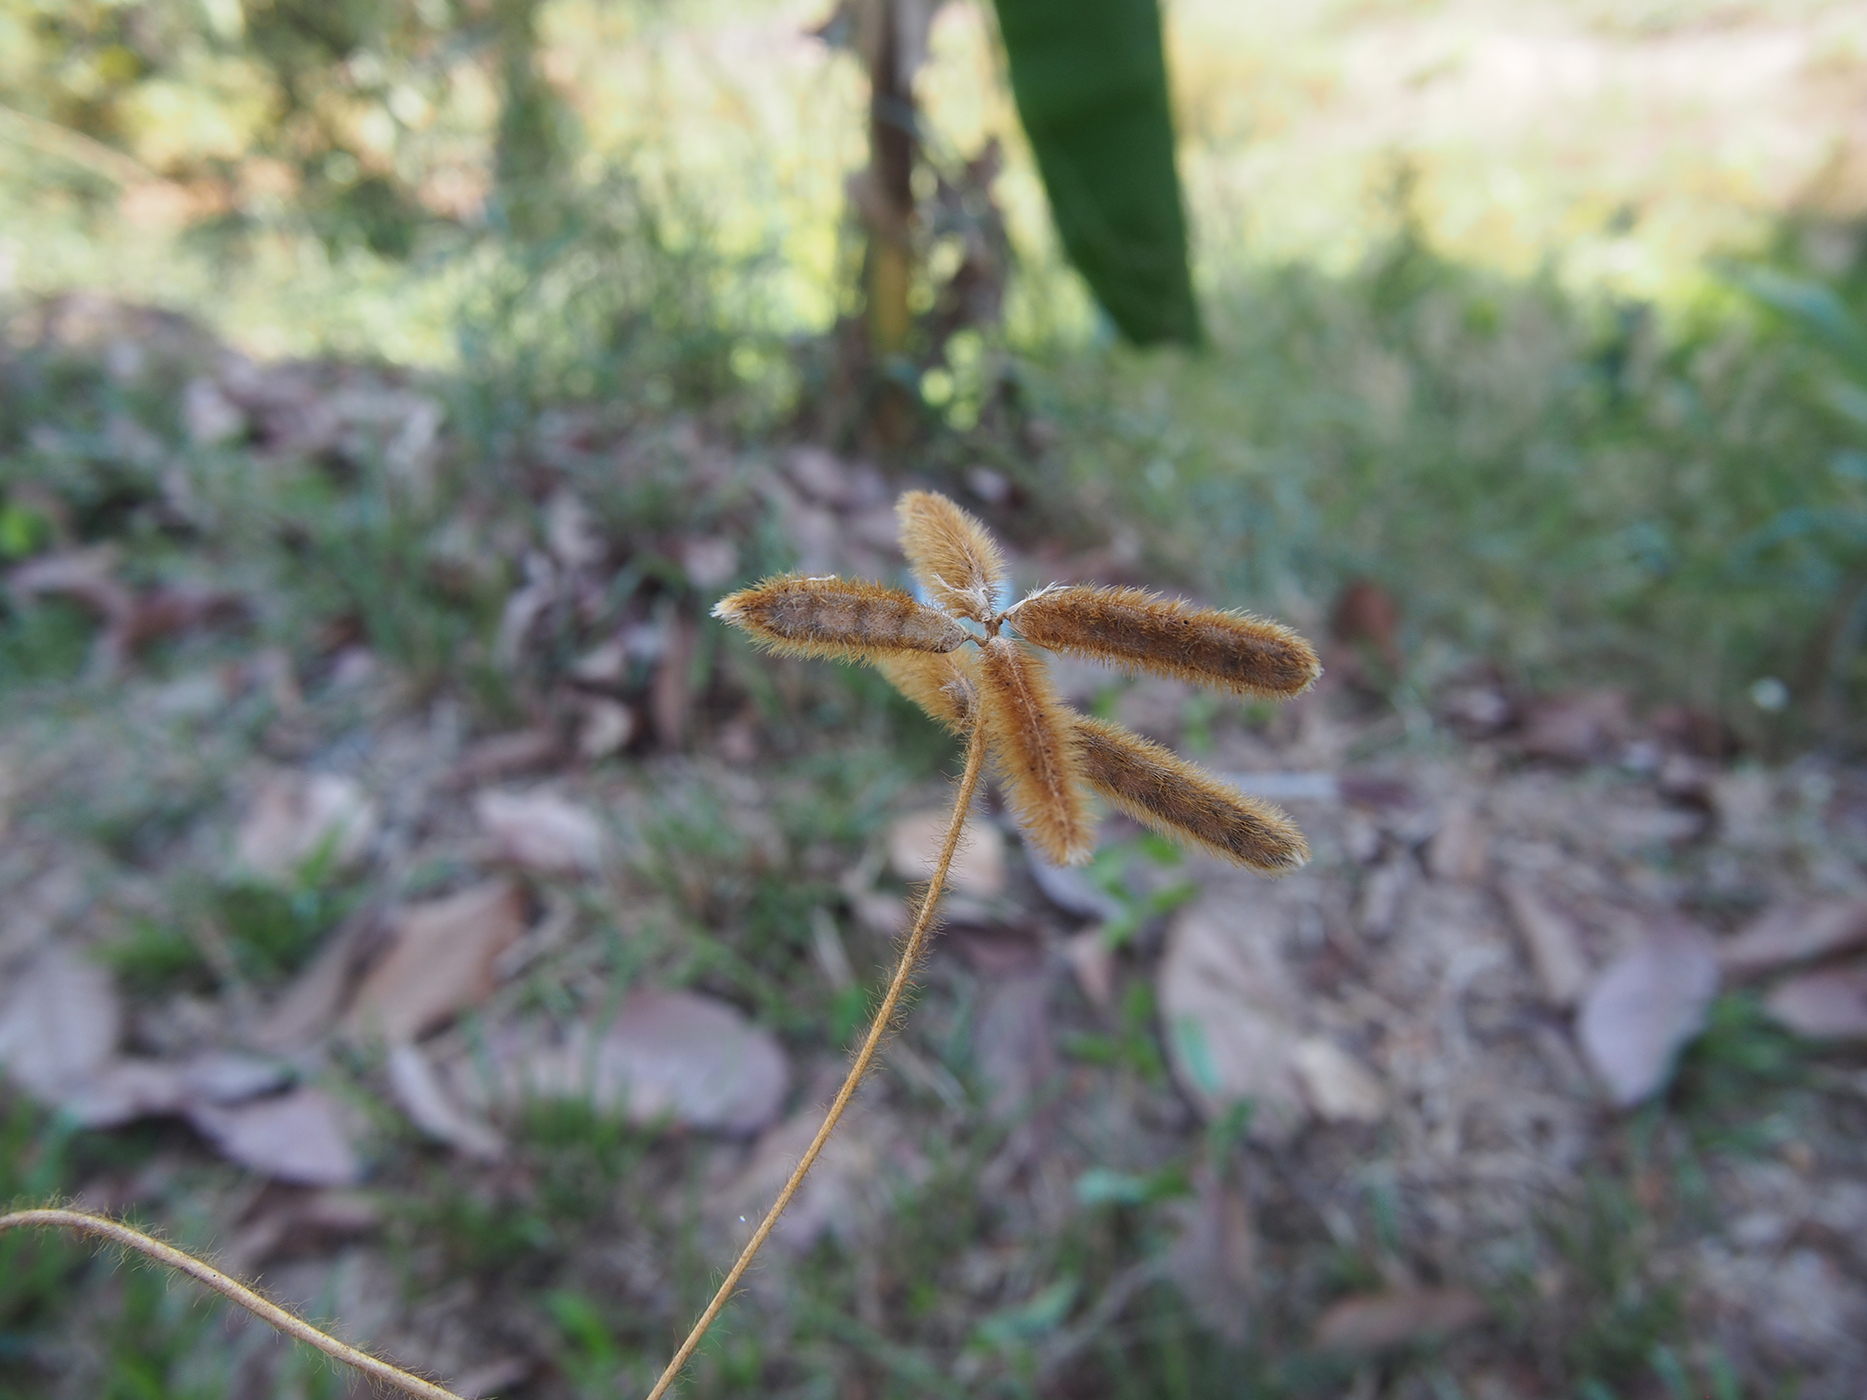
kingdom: Plantae
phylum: Tracheophyta
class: Magnoliopsida
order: Fabales
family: Fabaceae
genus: Calopogonium
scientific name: Calopogonium mucunoides
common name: Calopo
